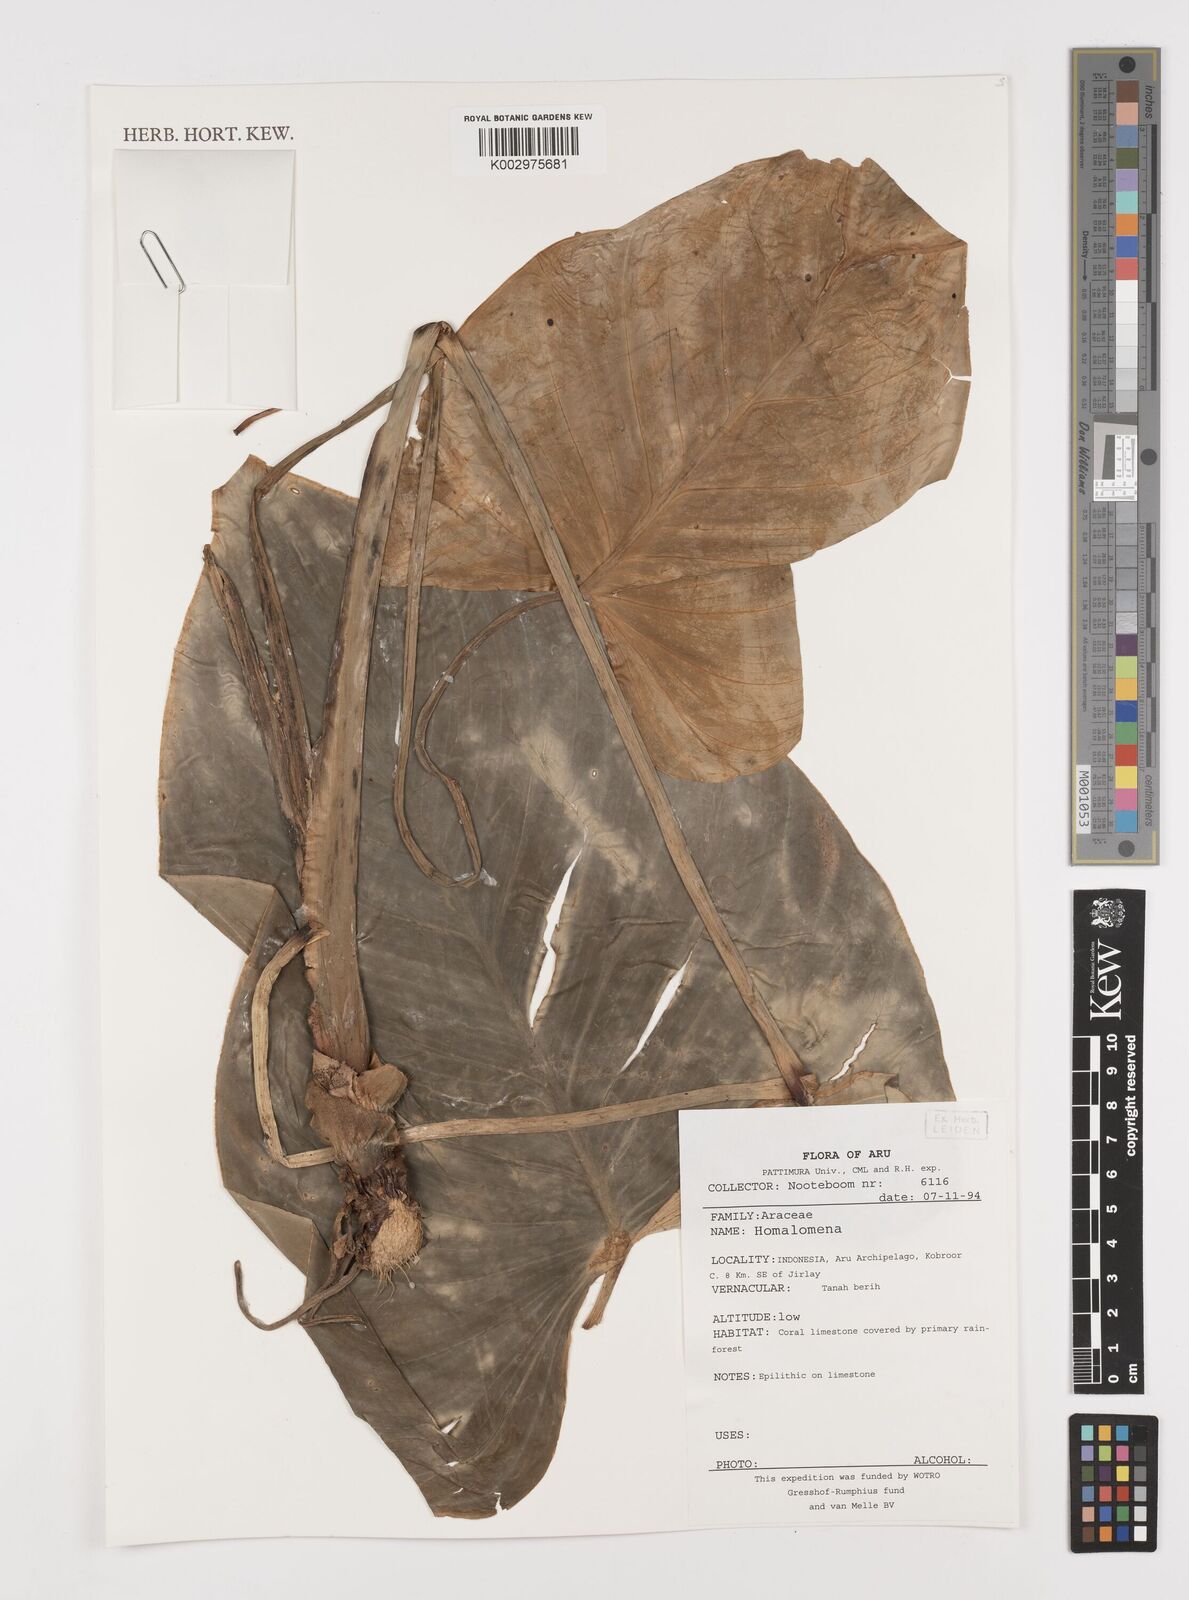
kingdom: Plantae
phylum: Tracheophyta
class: Liliopsida
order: Alismatales
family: Araceae
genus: Homalomena
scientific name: Homalomena
